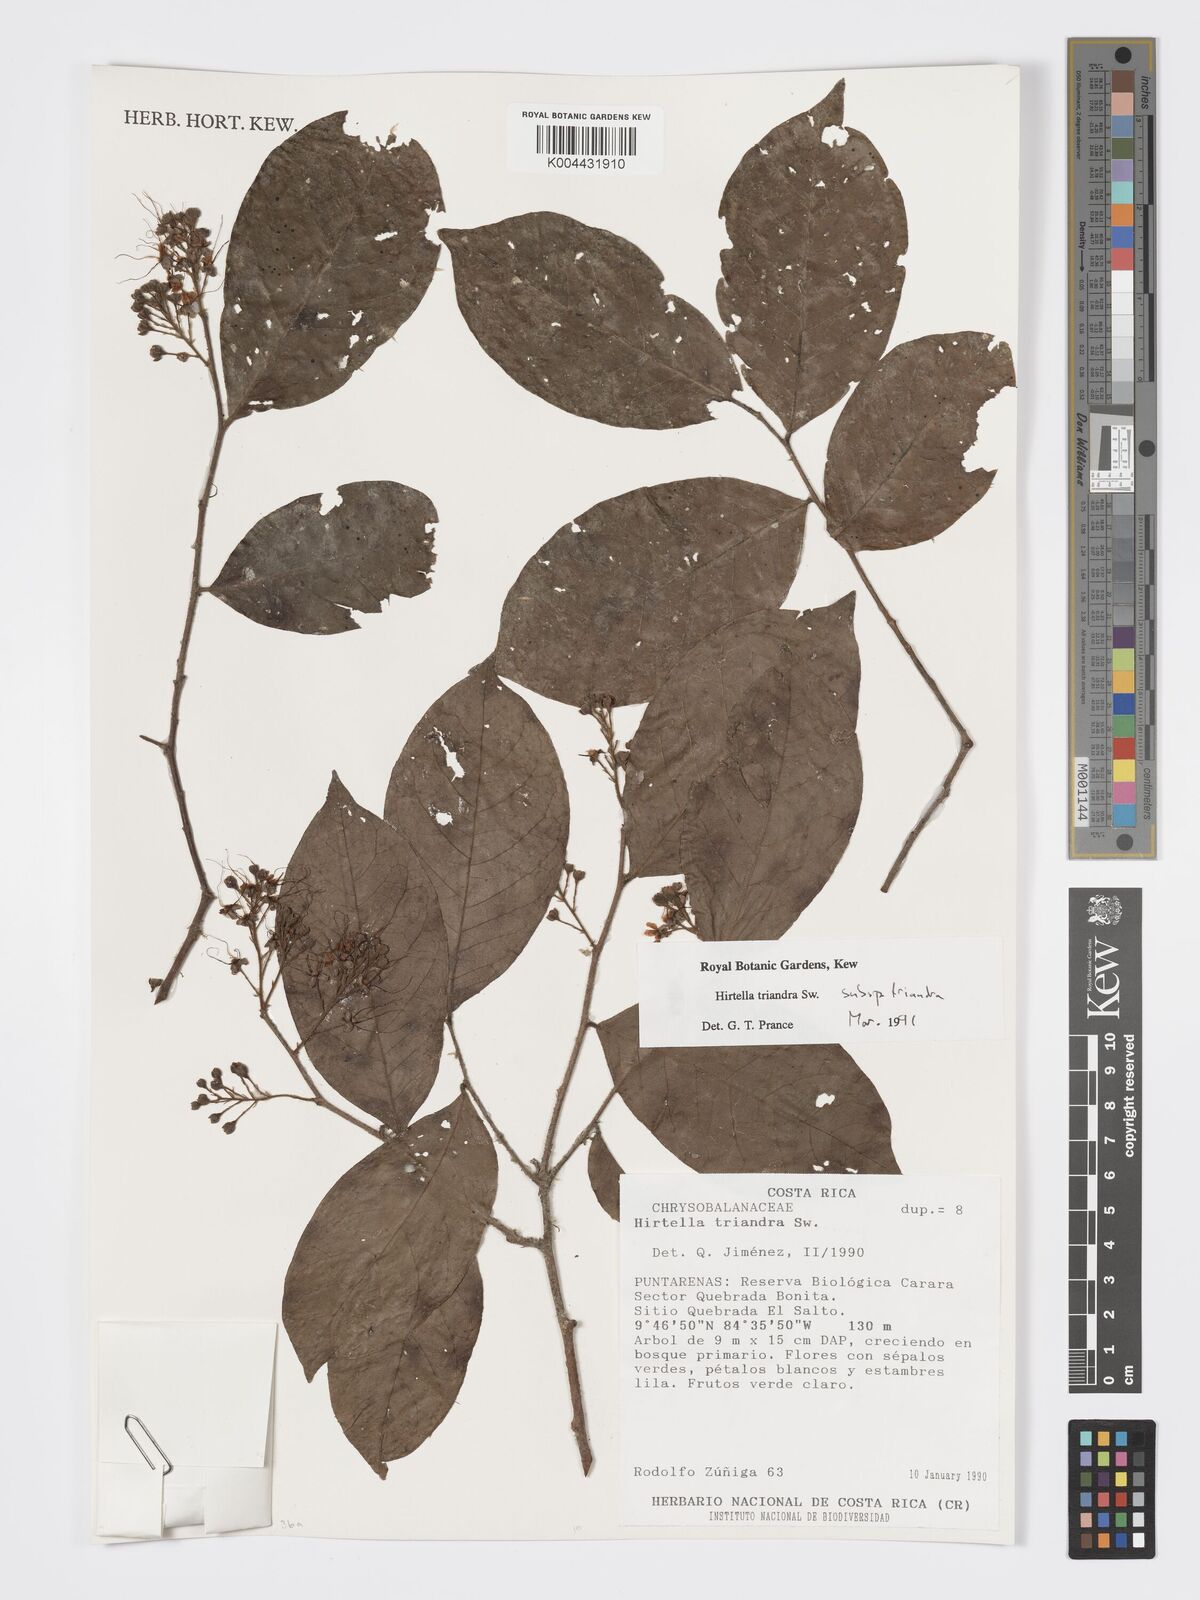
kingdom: Plantae
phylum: Tracheophyta
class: Magnoliopsida
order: Malpighiales
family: Chrysobalanaceae
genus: Hirtella
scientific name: Hirtella triandra
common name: Hairy plum
